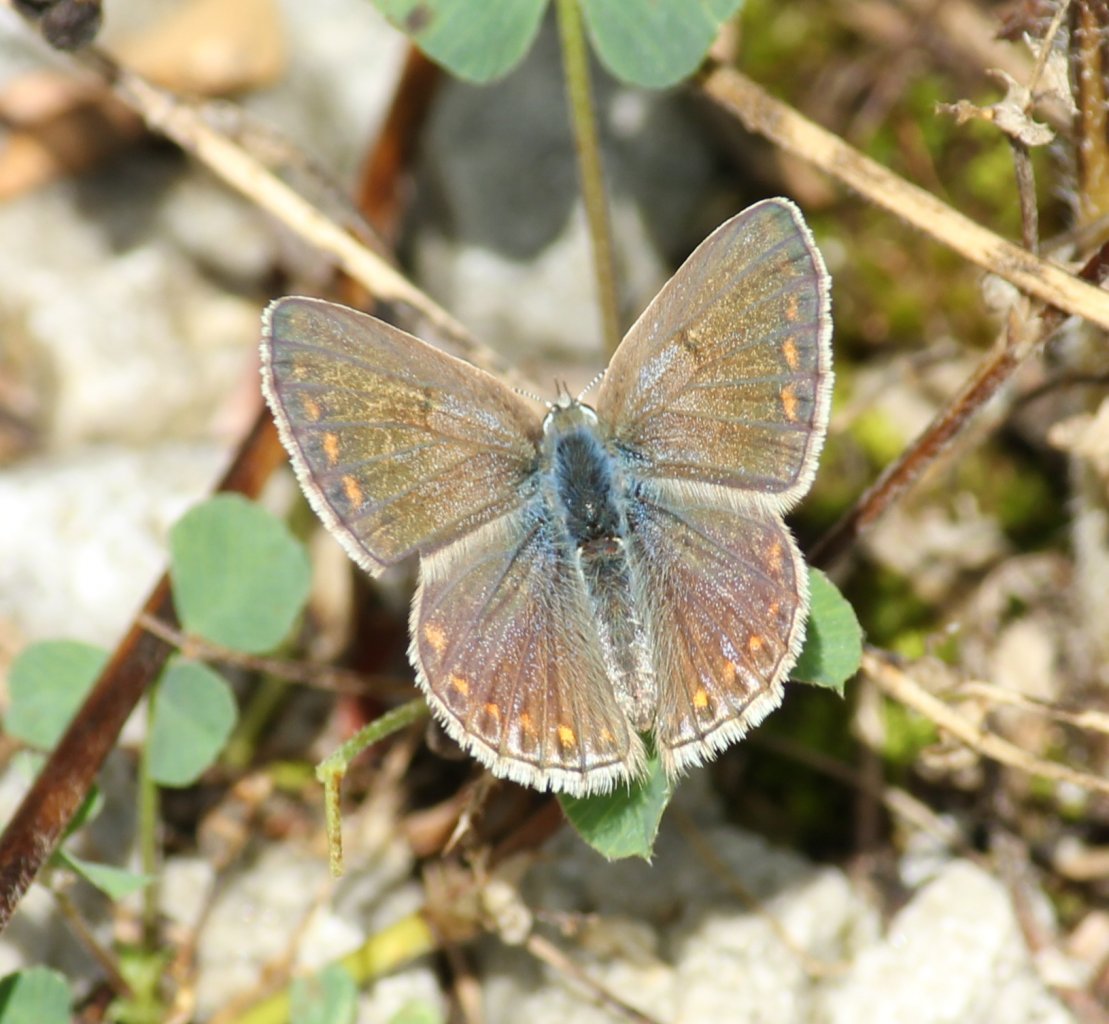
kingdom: Animalia
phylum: Arthropoda
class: Insecta
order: Lepidoptera
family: Lycaenidae
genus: Polyommatus
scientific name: Polyommatus icarus
